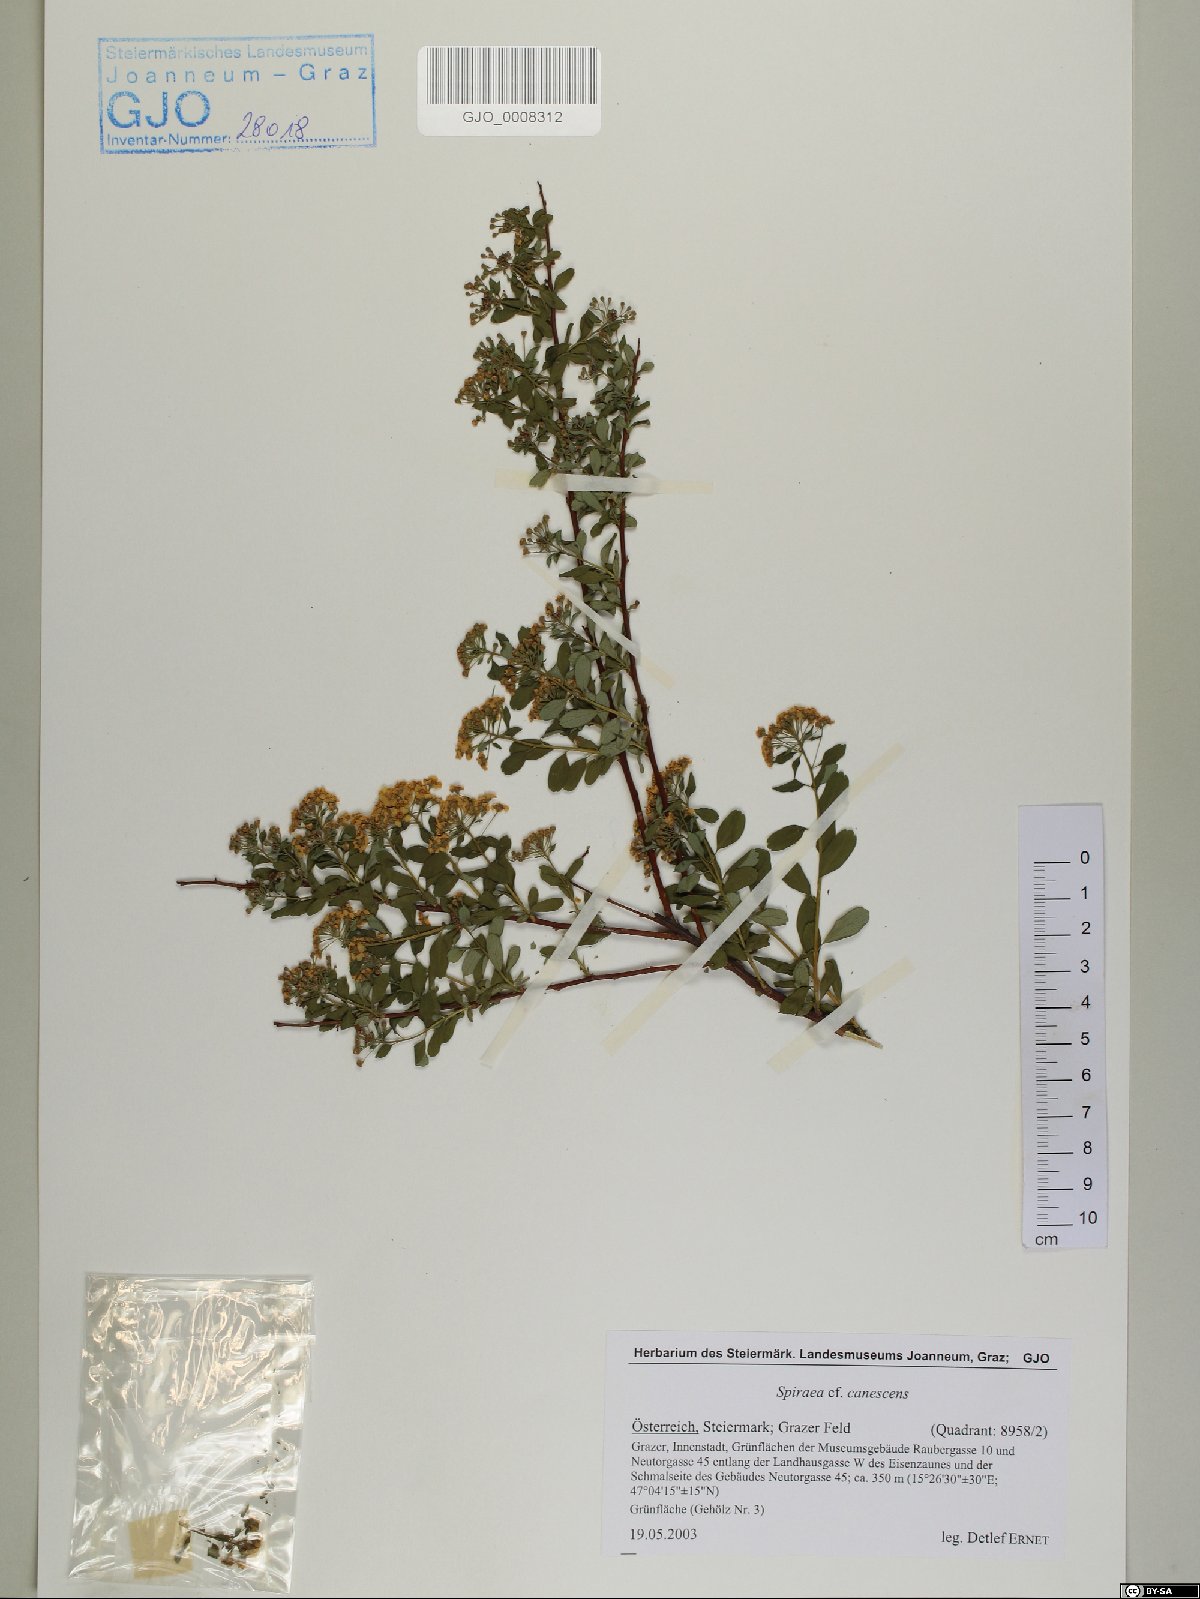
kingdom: Plantae
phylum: Tracheophyta
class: Magnoliopsida
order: Rosales
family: Rosaceae
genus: Spiraea
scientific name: Spiraea canescens
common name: Himalayan spiraea
